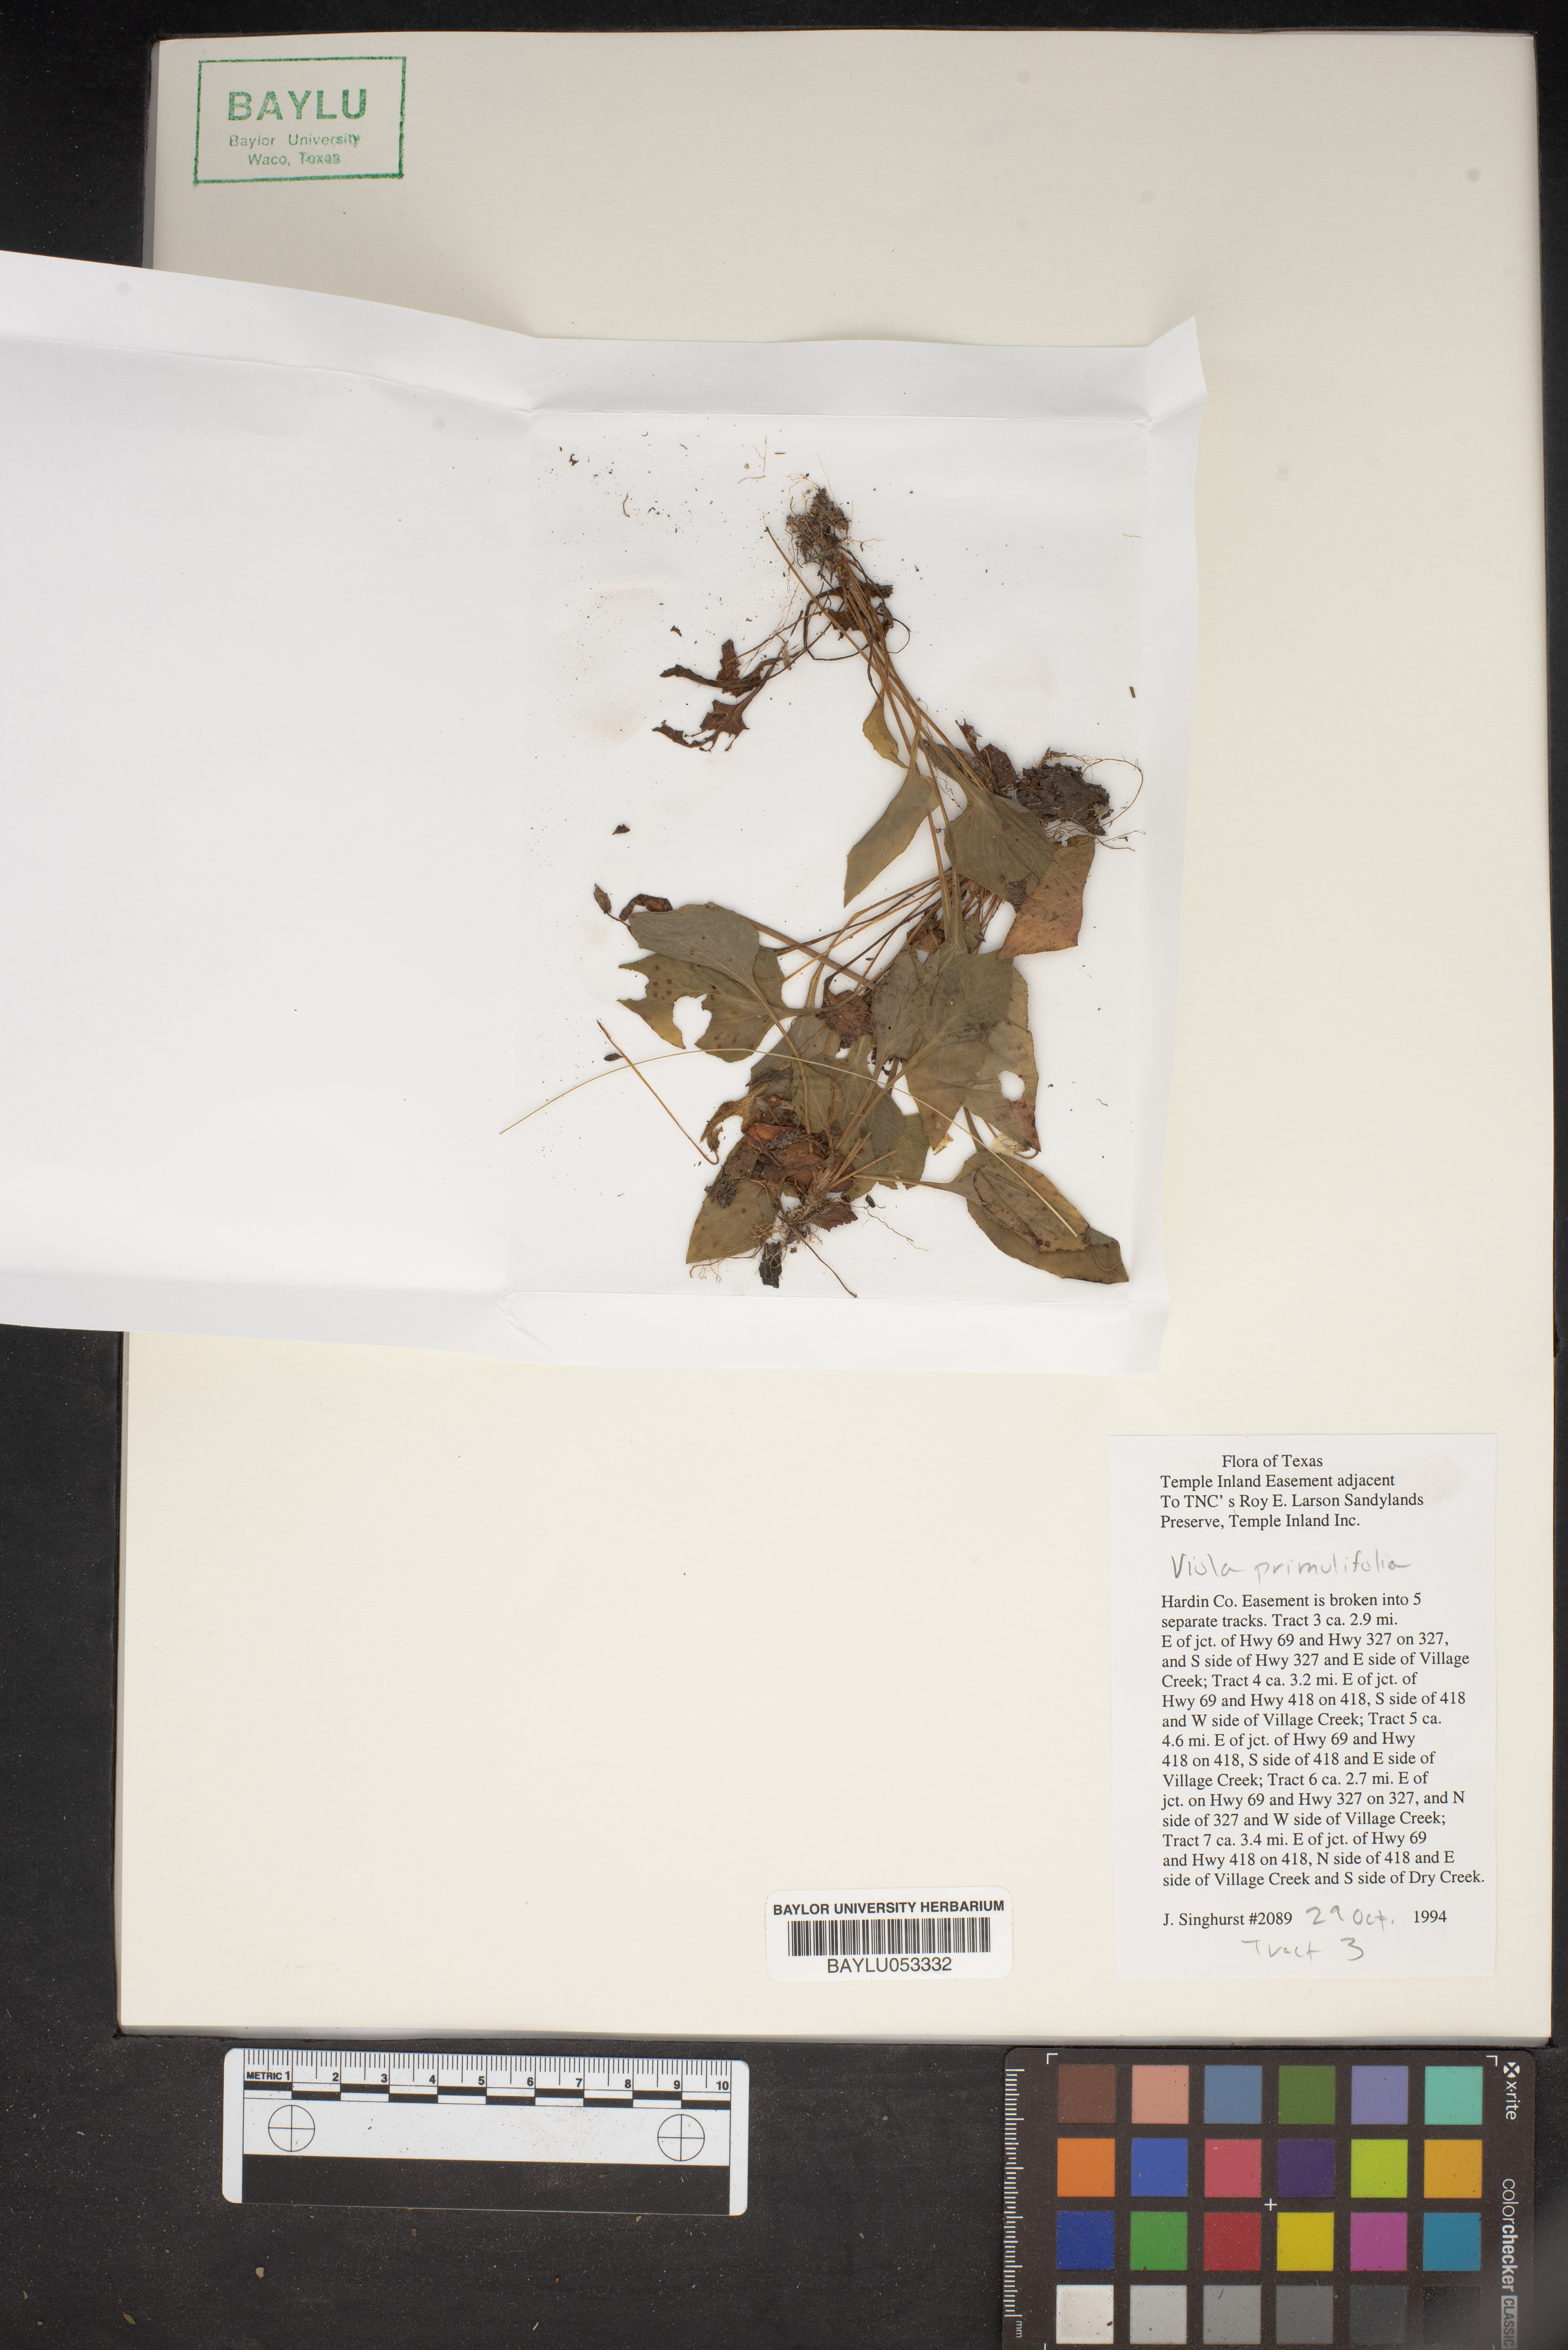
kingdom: Plantae
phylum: Tracheophyta
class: Magnoliopsida
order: Malpighiales
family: Violaceae
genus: Viola
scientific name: Viola primulifolia
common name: Primrose-leaf violet
